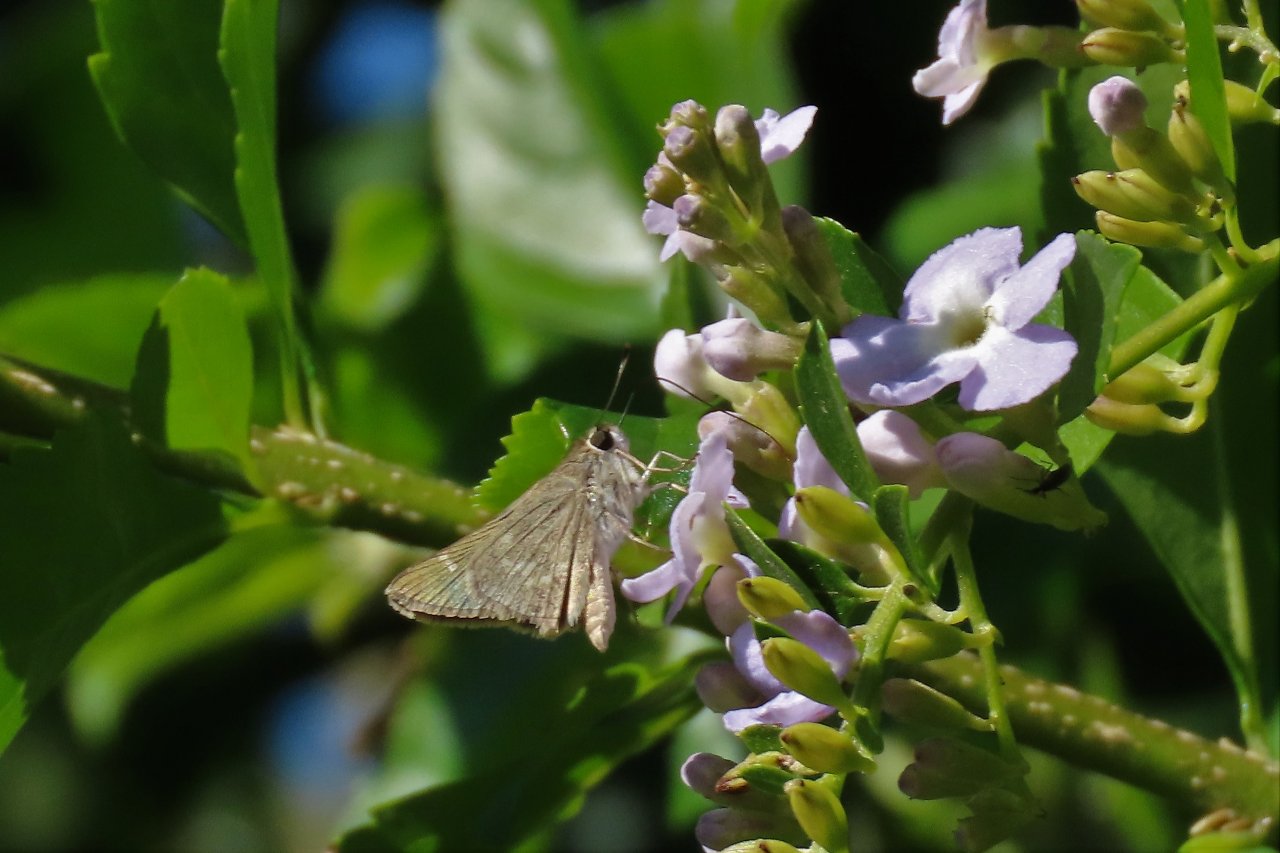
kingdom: Animalia
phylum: Arthropoda
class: Insecta
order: Lepidoptera
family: Hesperiidae
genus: Lerodea
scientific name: Lerodea eufala
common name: Eufala Skipper
